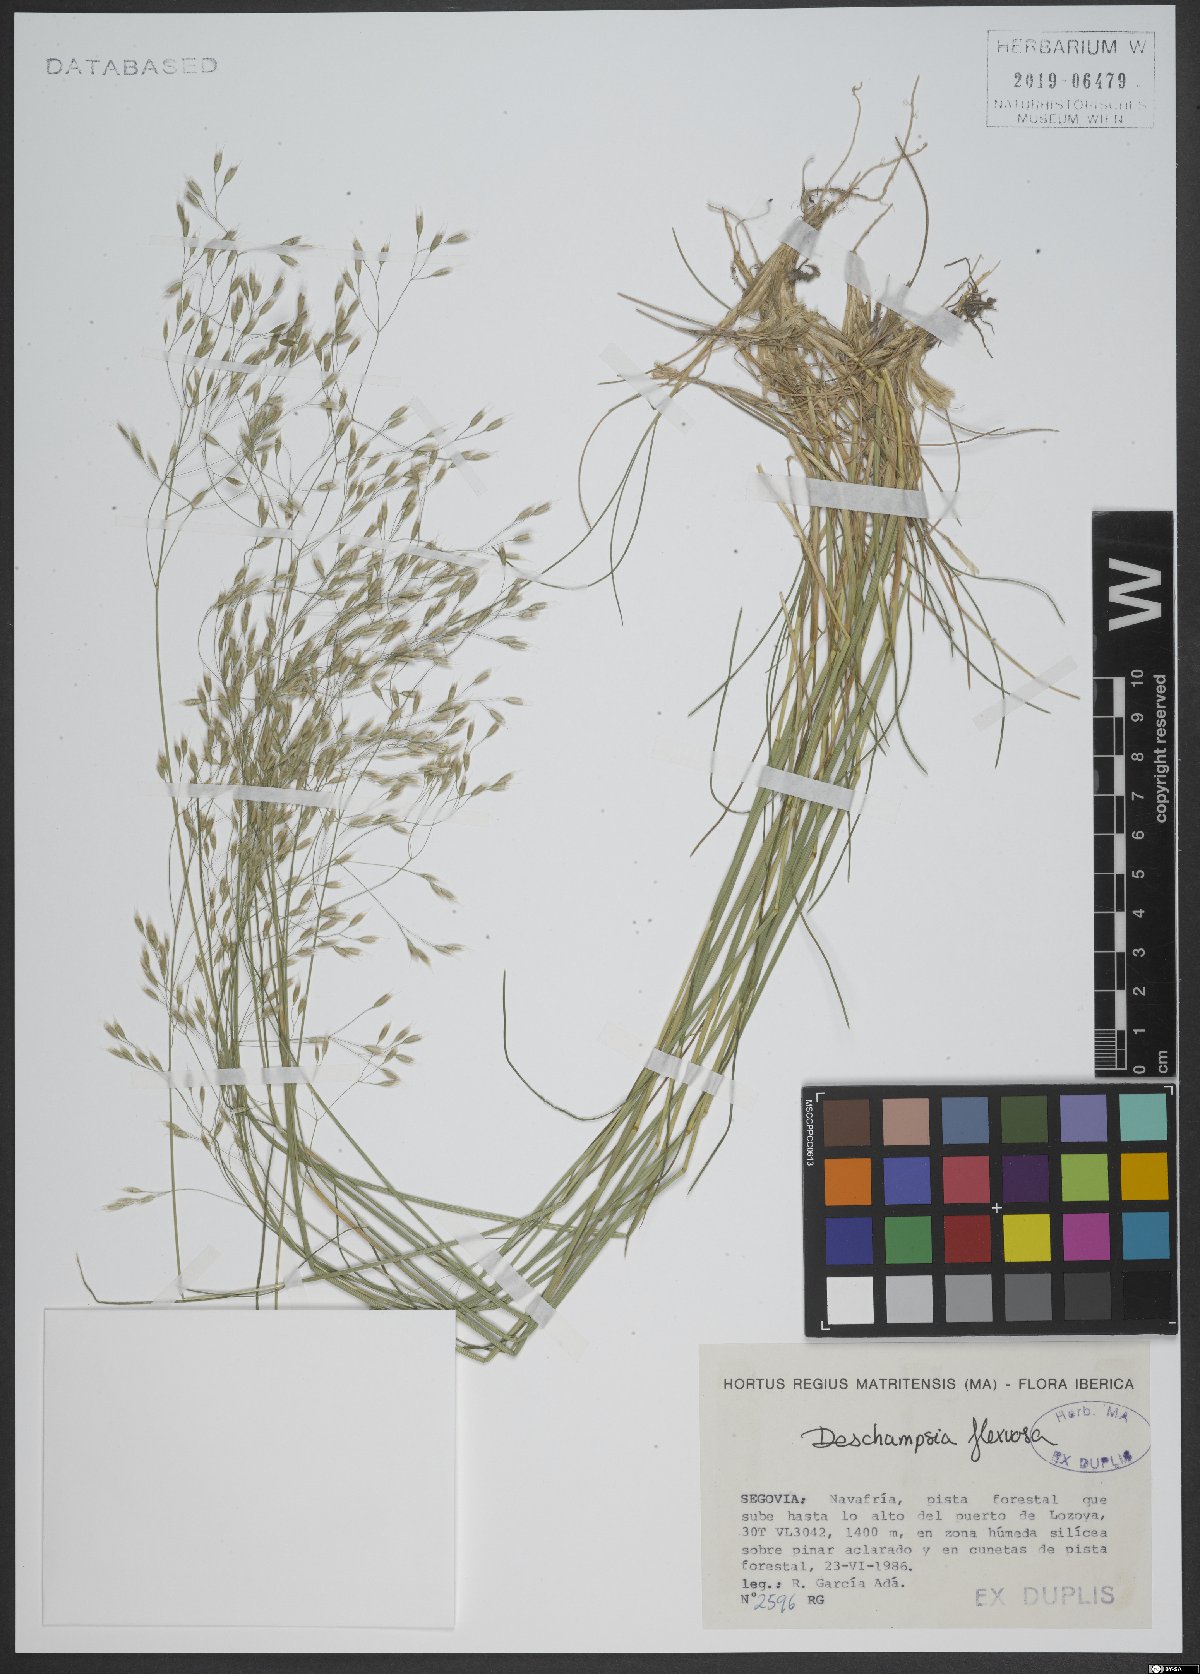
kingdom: Plantae
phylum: Tracheophyta
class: Liliopsida
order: Poales
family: Poaceae
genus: Avenella
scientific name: Avenella flexuosa
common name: Wavy hairgrass
